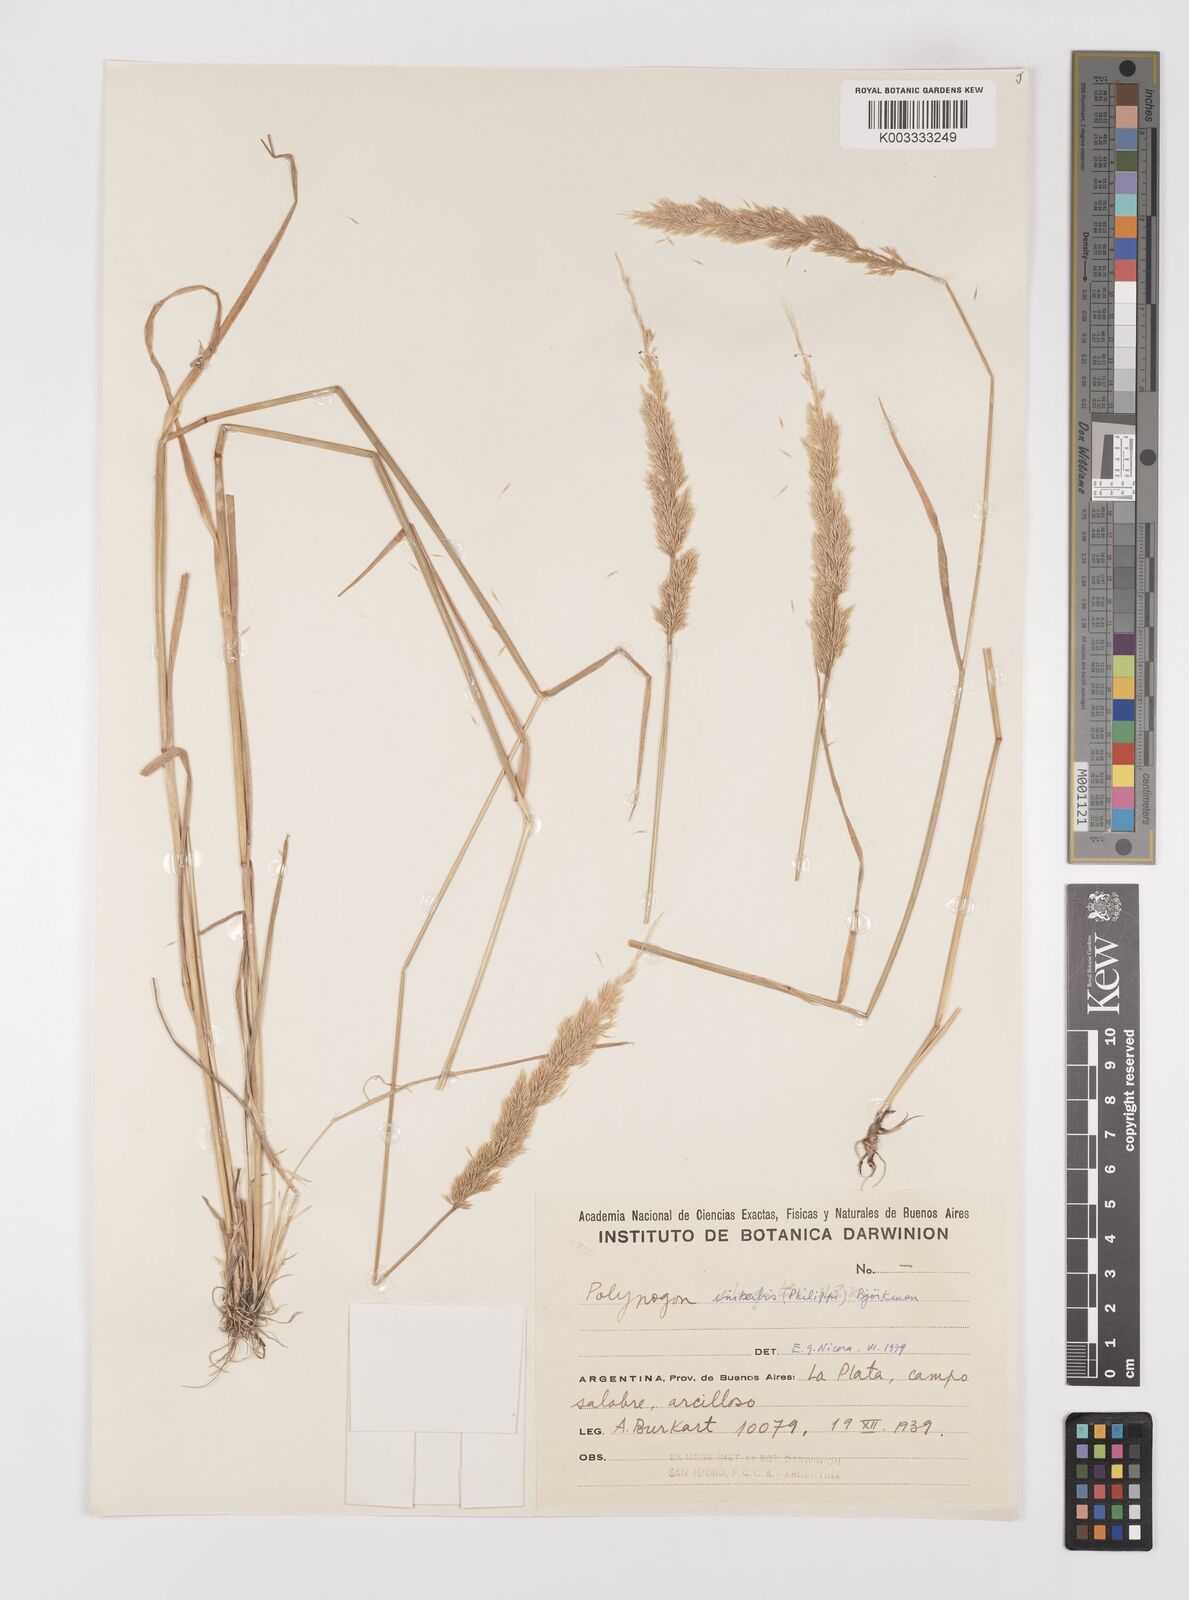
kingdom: Plantae
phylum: Tracheophyta
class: Liliopsida
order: Poales
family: Poaceae
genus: Polypogon
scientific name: Polypogon imberbis
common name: Beardless rabbitsfoot grass
